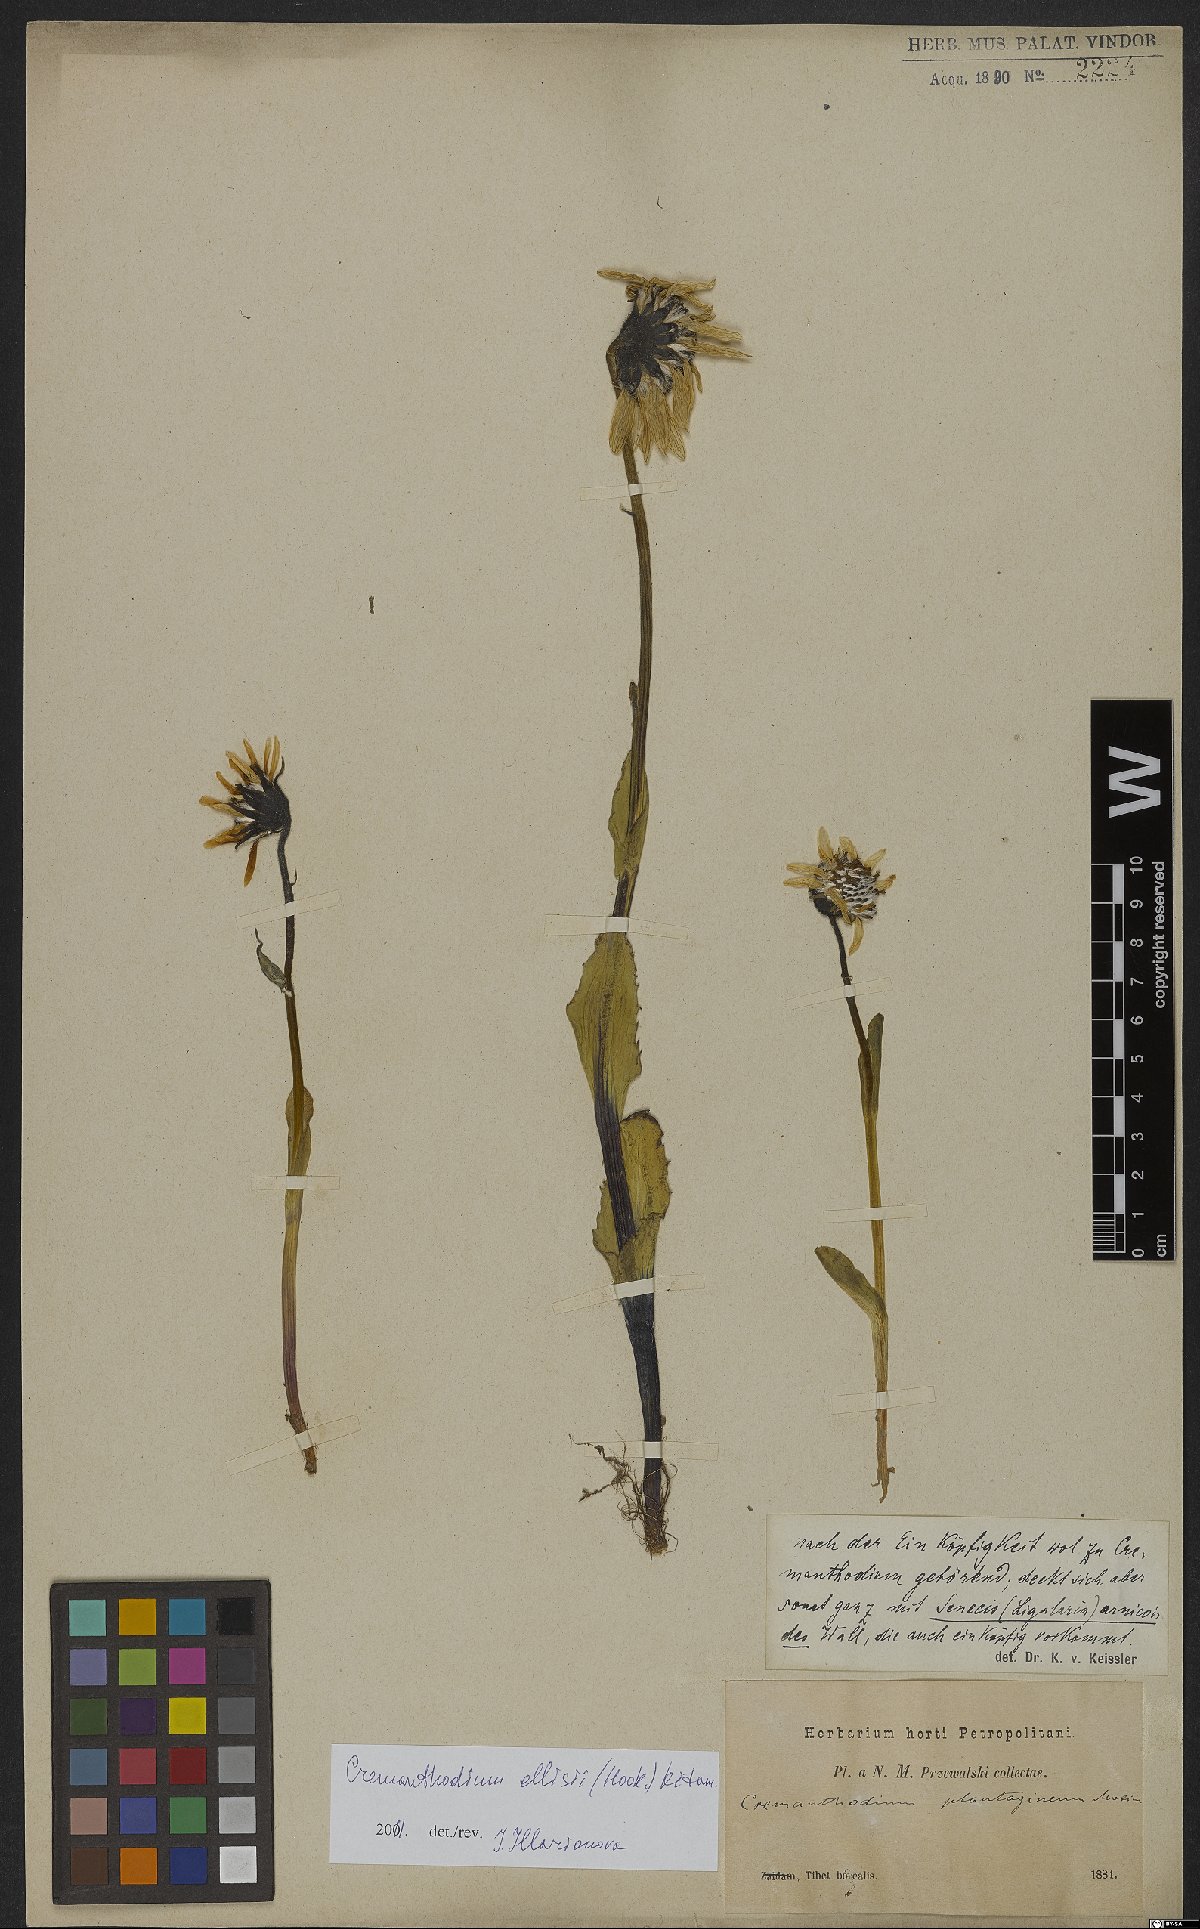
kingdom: Plantae
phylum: Tracheophyta
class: Magnoliopsida
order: Asterales
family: Asteraceae
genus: Cremanthodium
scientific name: Cremanthodium ellisii
